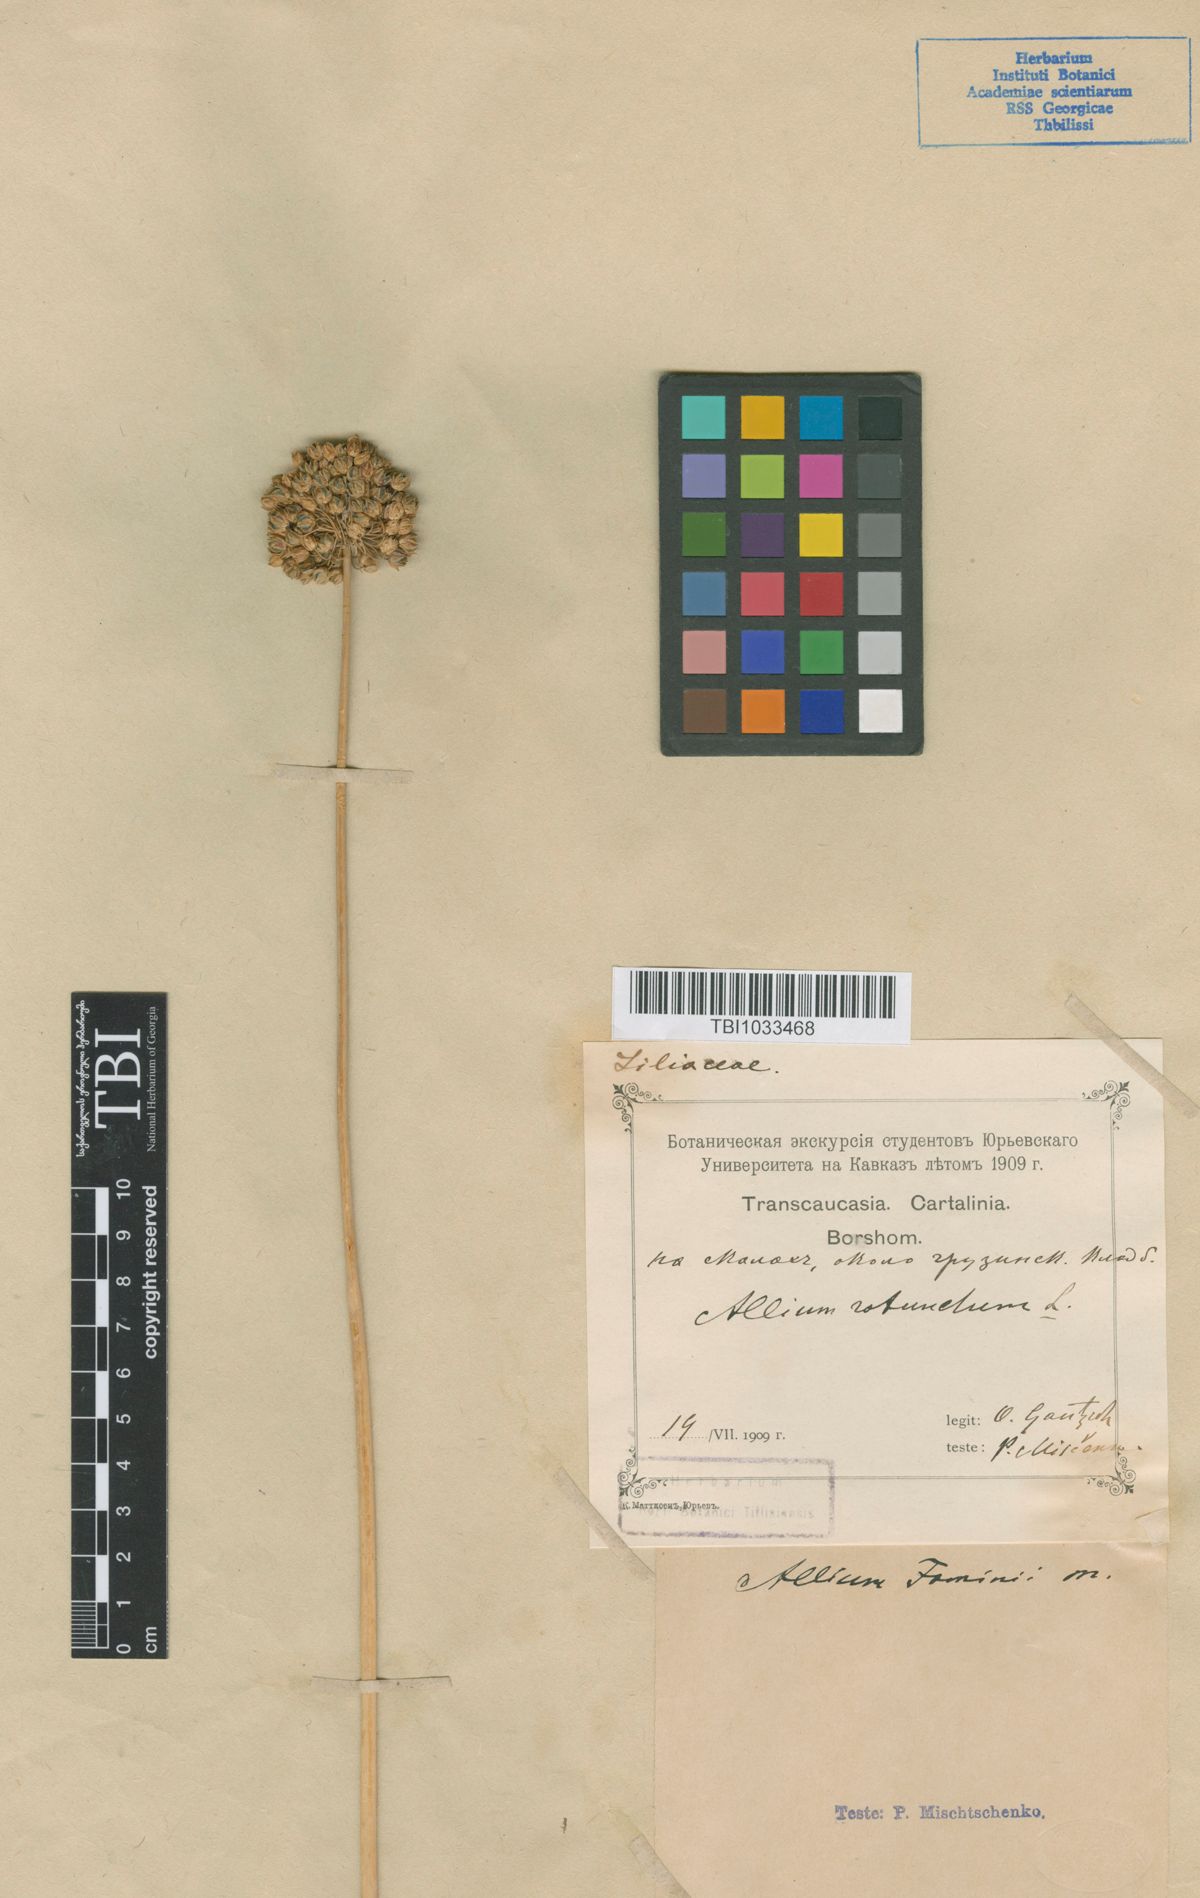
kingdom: Plantae
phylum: Tracheophyta
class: Liliopsida
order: Asparagales
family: Amaryllidaceae
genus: Allium
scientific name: Allium gramineum
